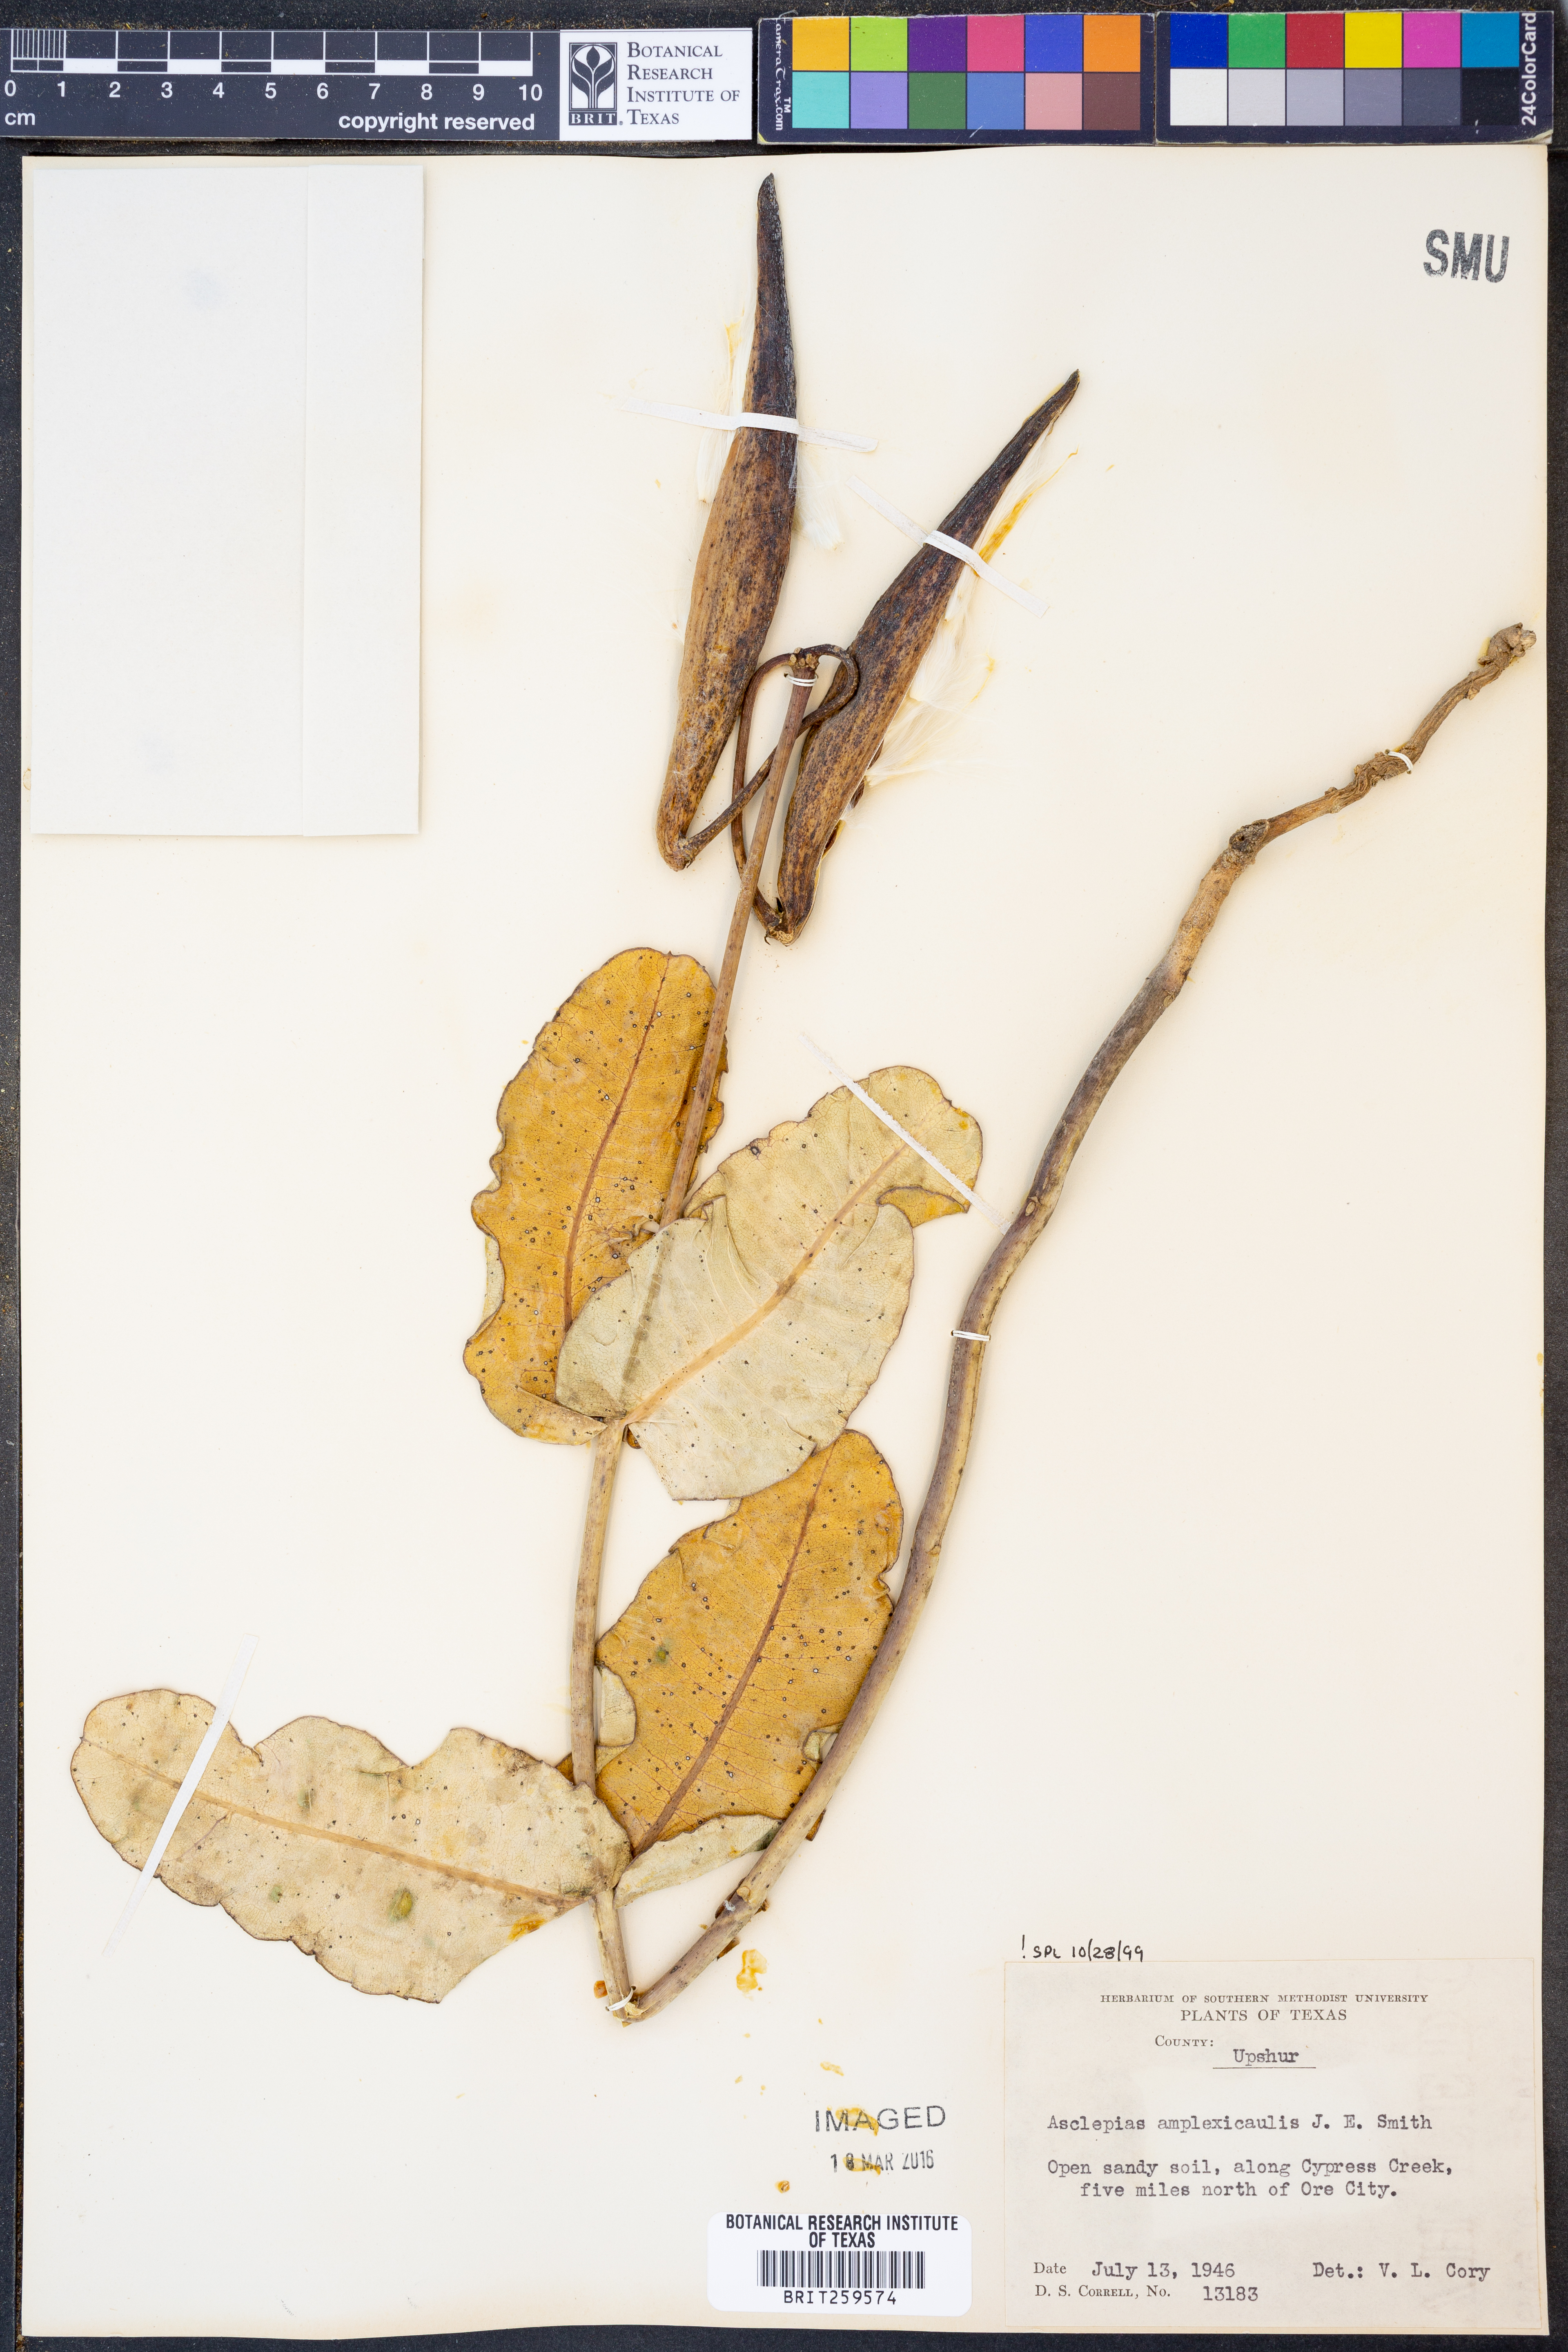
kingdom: Plantae
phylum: Tracheophyta
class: Magnoliopsida
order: Gentianales
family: Apocynaceae
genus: Asclepias
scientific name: Asclepias amplexicaulis
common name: Blunt-leaf milkweed
